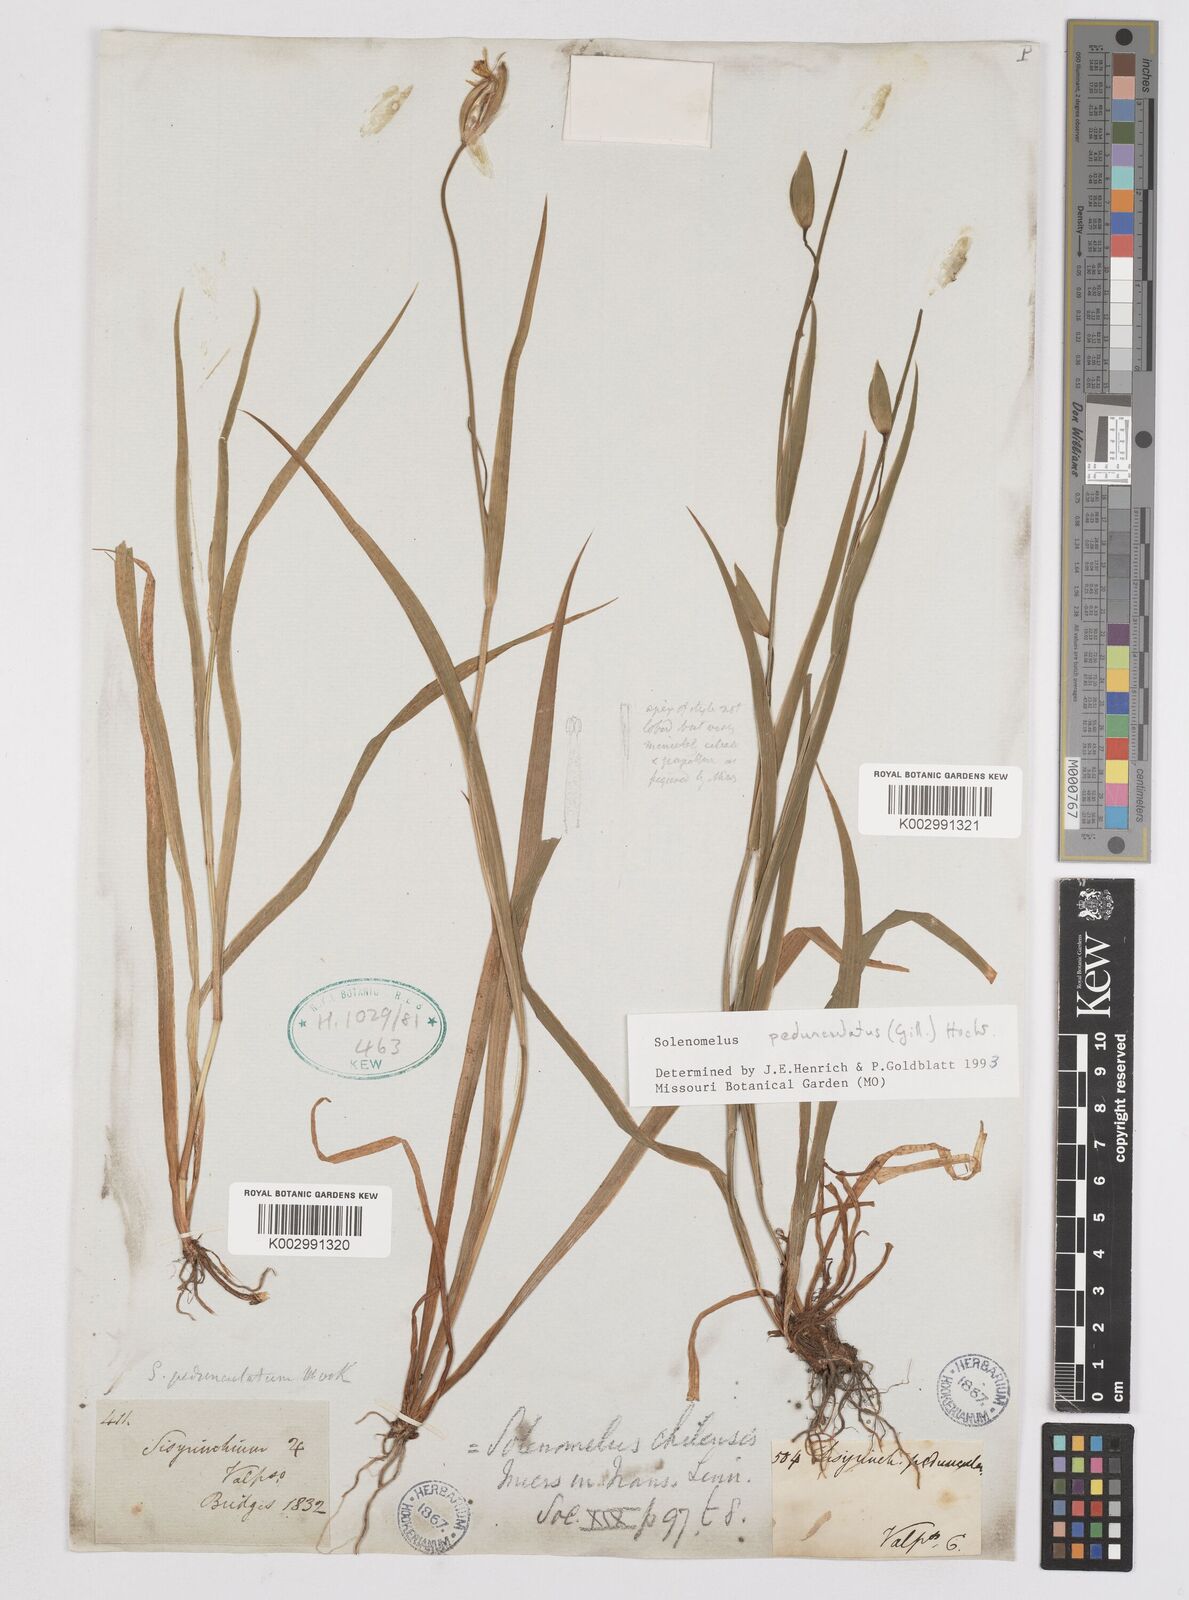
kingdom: Plantae
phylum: Tracheophyta
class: Liliopsida
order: Asparagales
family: Iridaceae
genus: Solenomelus
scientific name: Solenomelus pedunculatus
